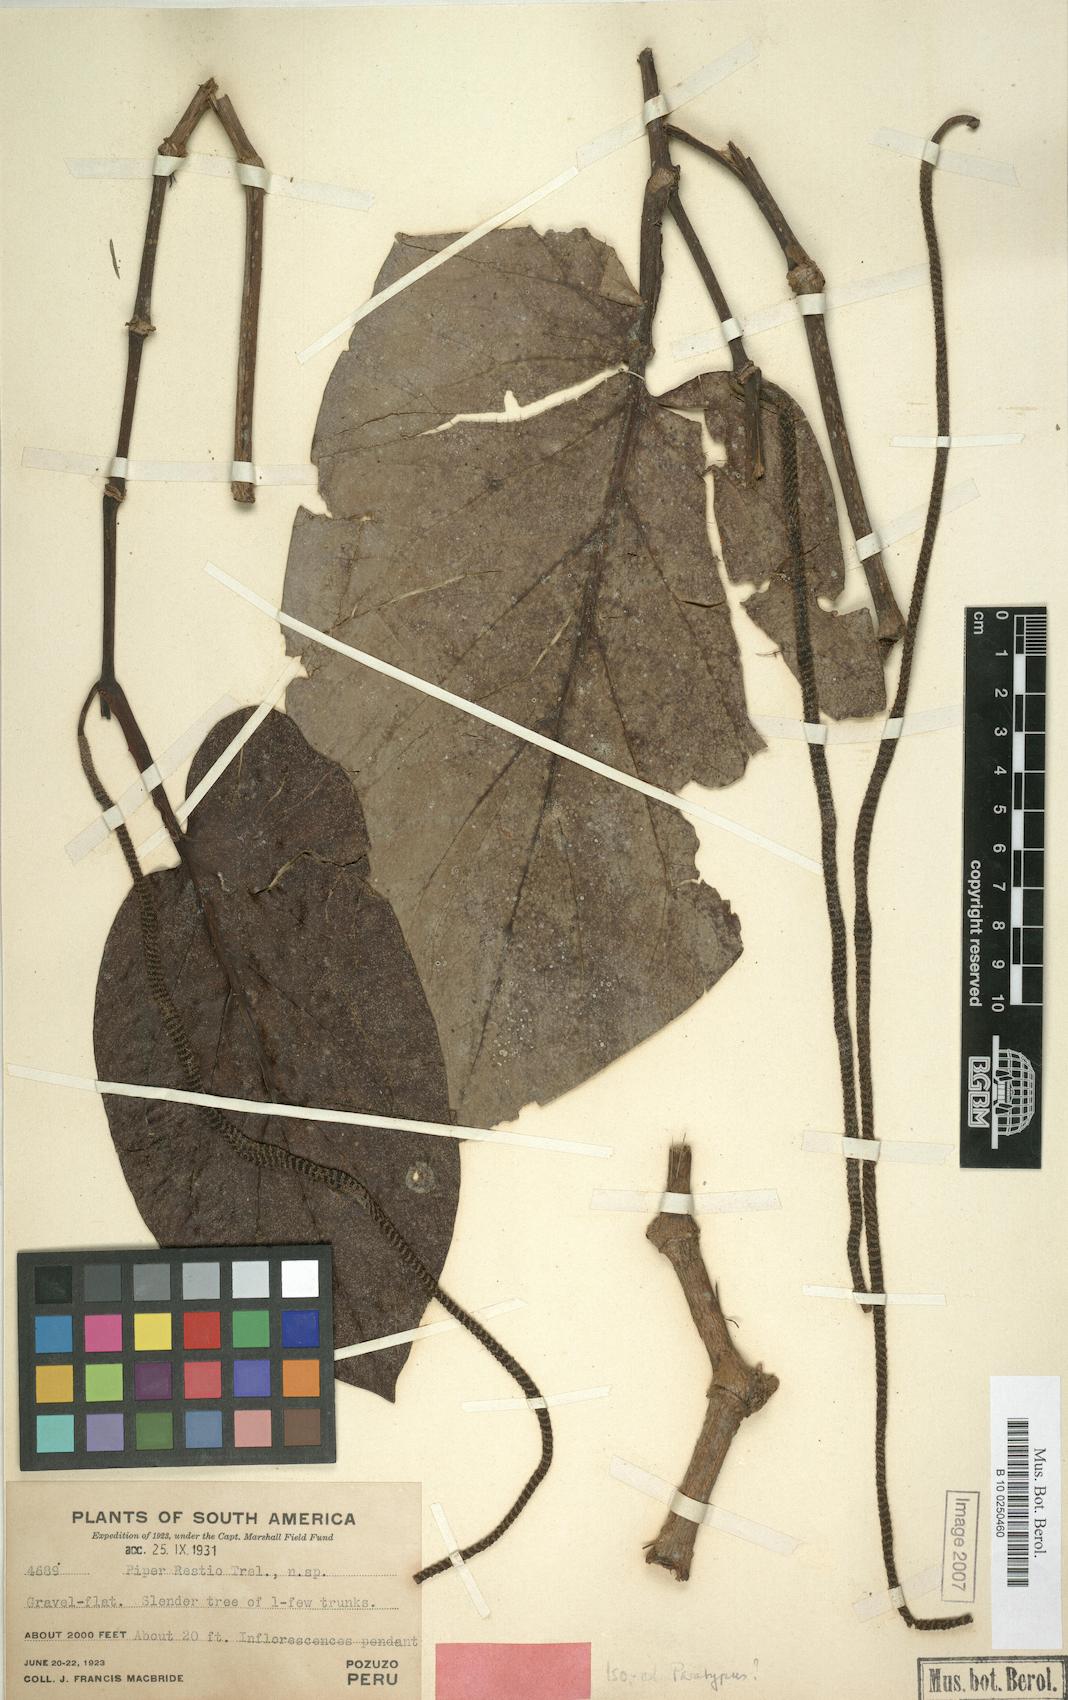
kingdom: Plantae
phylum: Tracheophyta
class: Magnoliopsida
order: Piperales
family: Piperaceae
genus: Piper
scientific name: Piper restio
